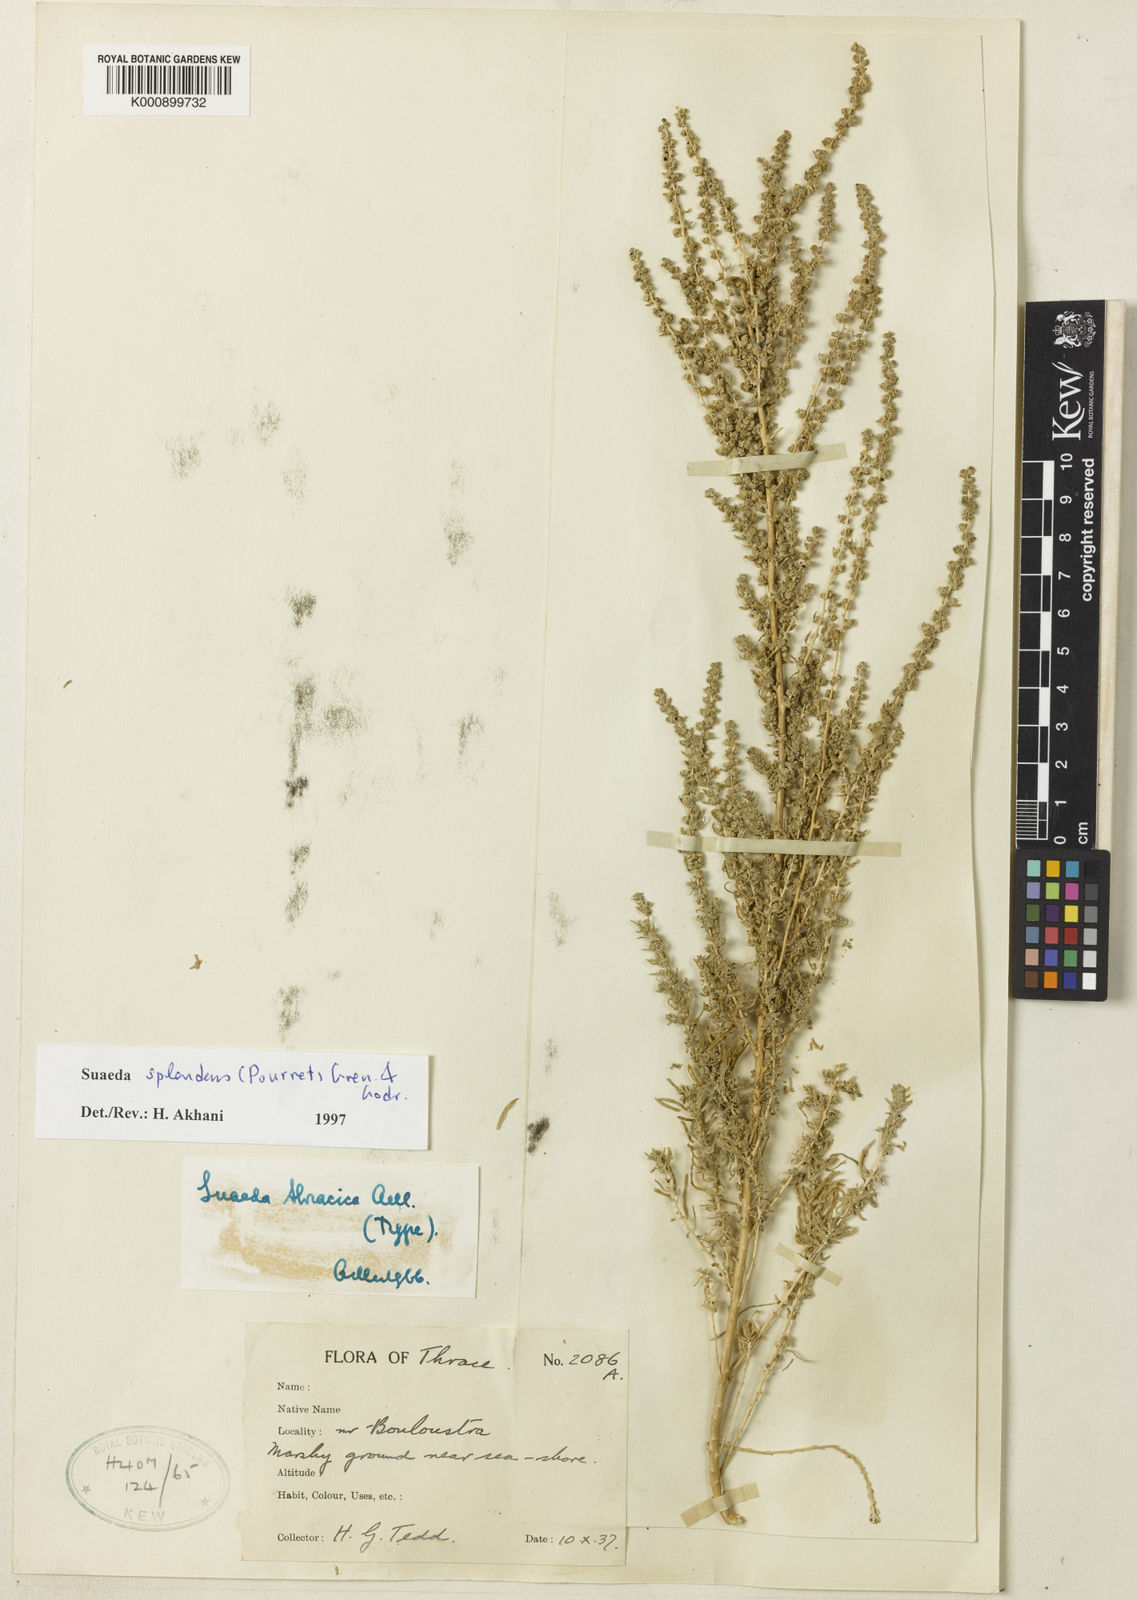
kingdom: Plantae
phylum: Tracheophyta
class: Magnoliopsida
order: Caryophyllales
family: Amaranthaceae
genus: Suaeda
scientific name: Suaeda
